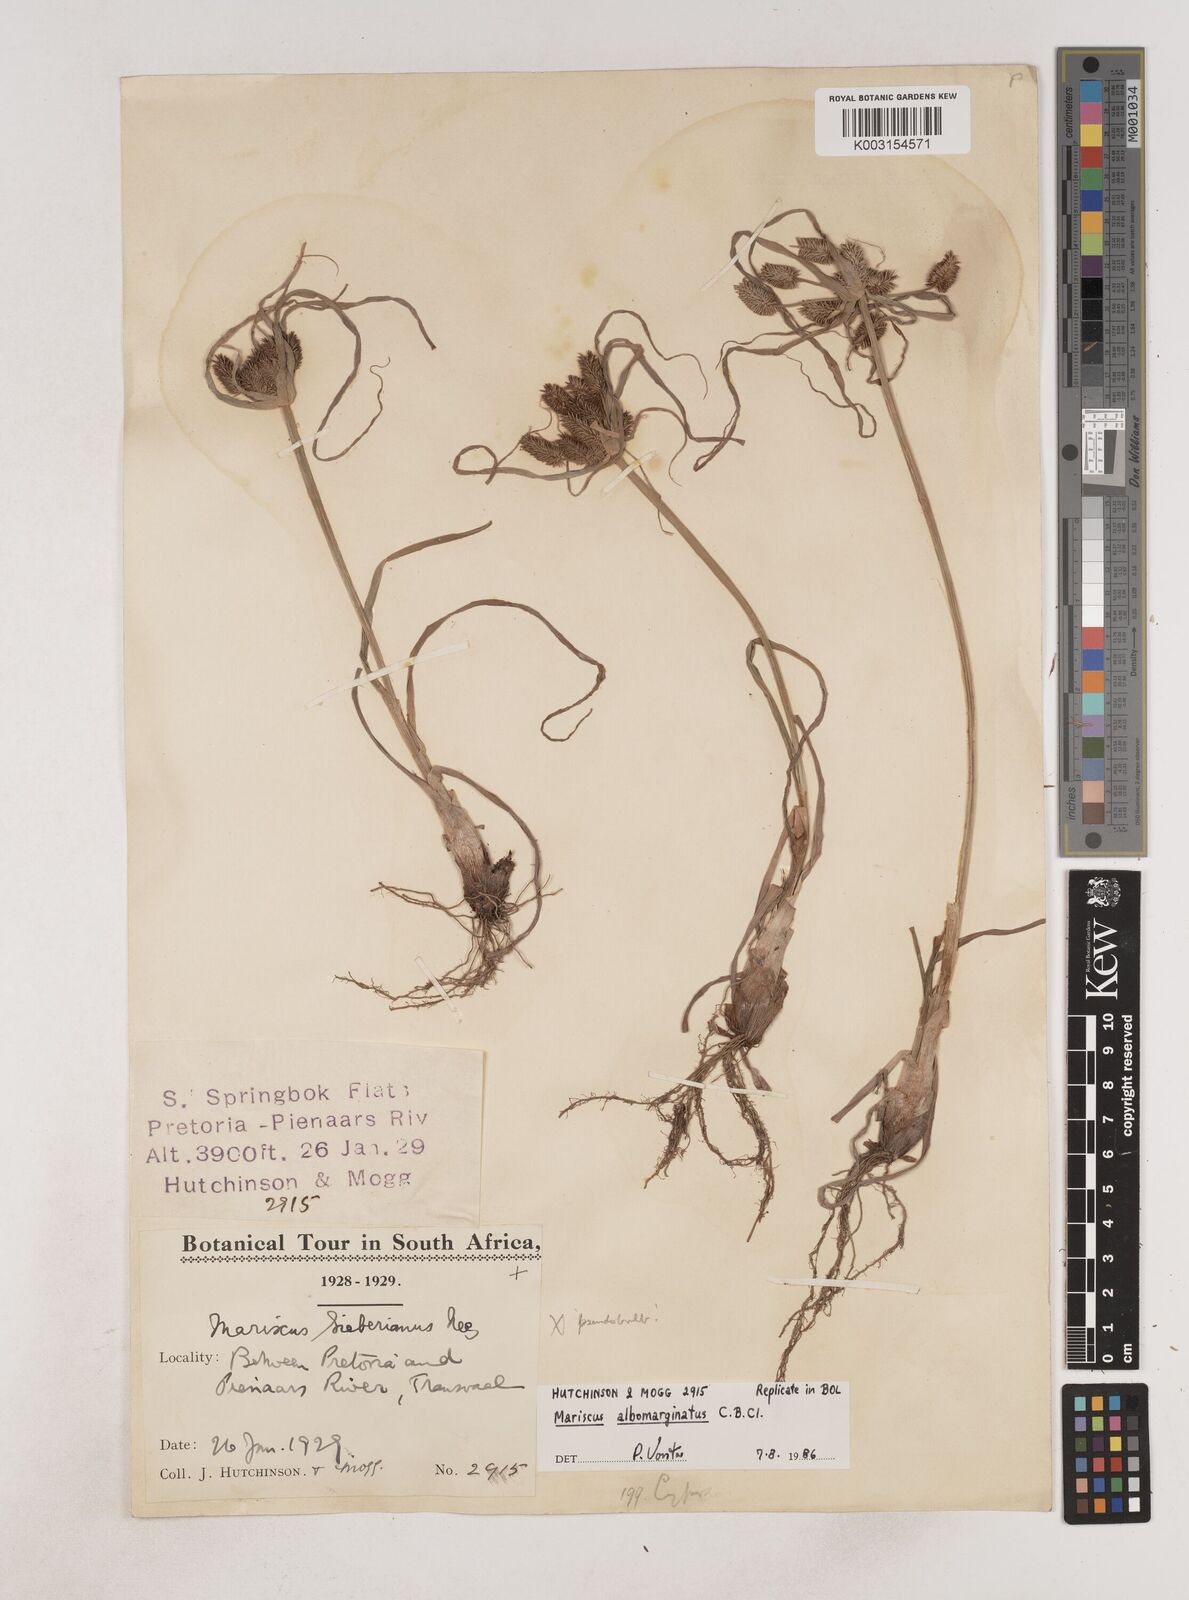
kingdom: Plantae
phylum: Tracheophyta
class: Liliopsida
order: Poales
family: Cyperaceae
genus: Cyperus
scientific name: Cyperus indecorus
